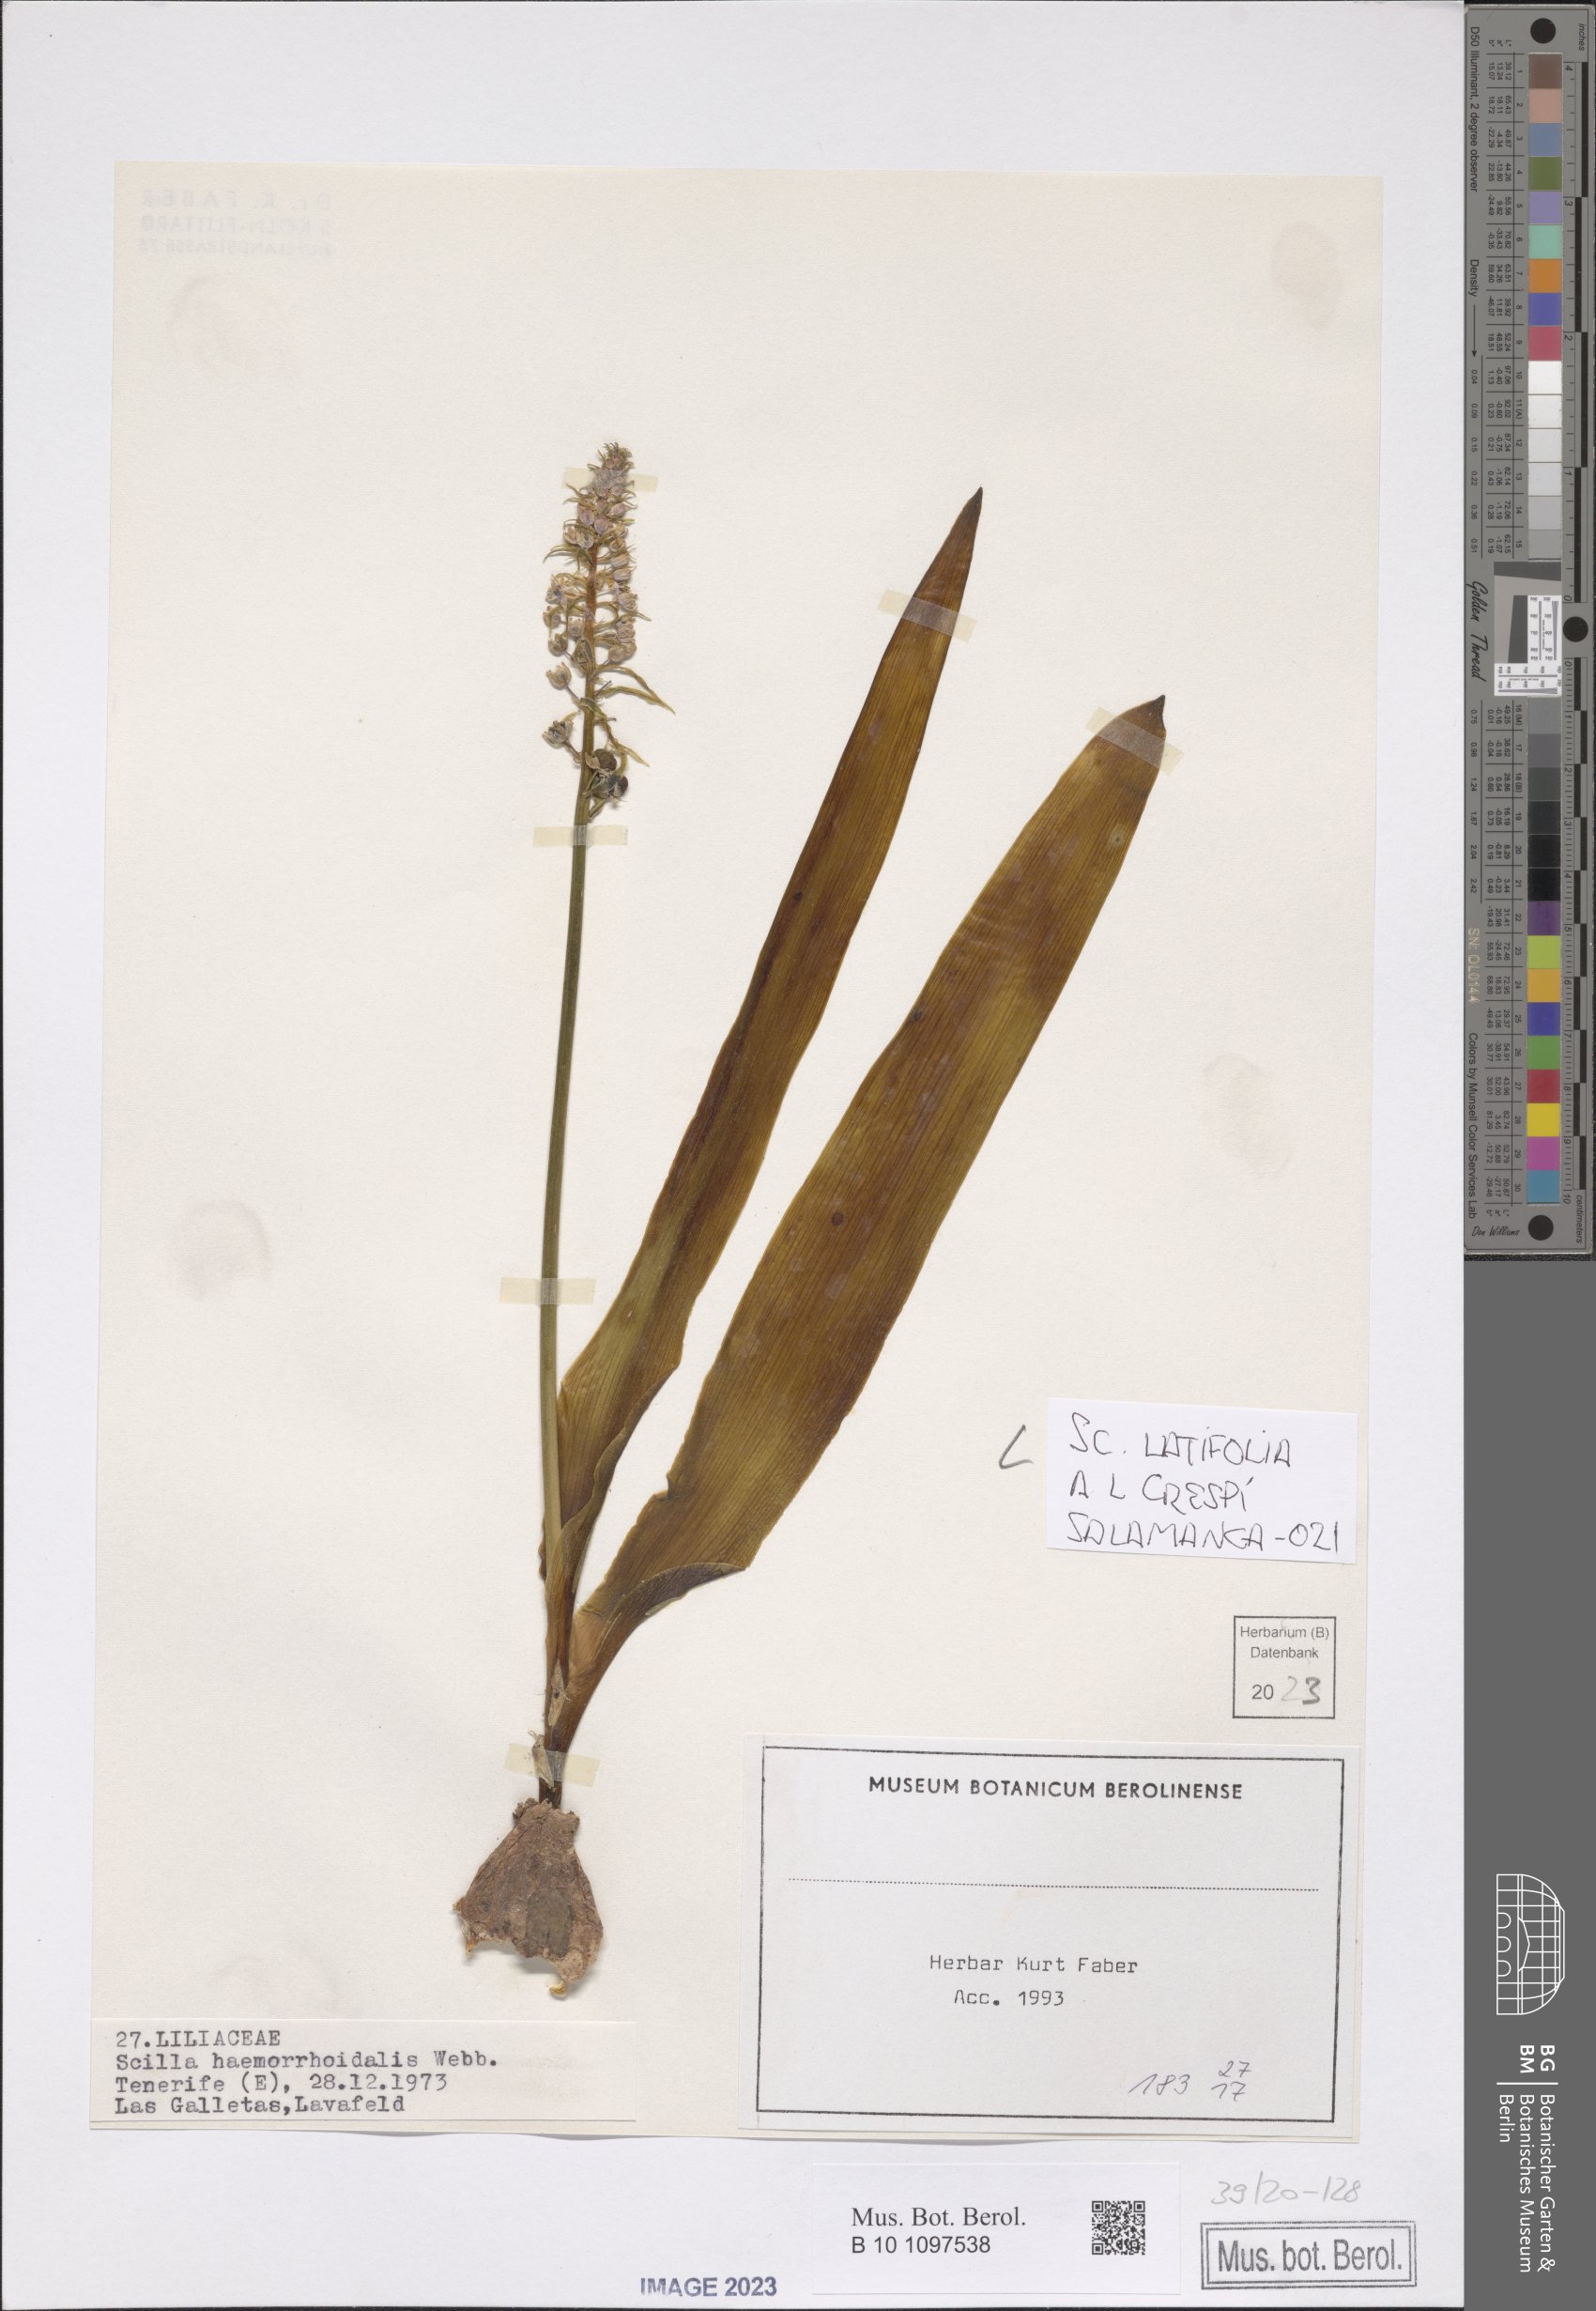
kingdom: Plantae
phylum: Tracheophyta
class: Liliopsida
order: Asparagales
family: Asparagaceae
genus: Scilla
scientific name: Scilla latifolia
